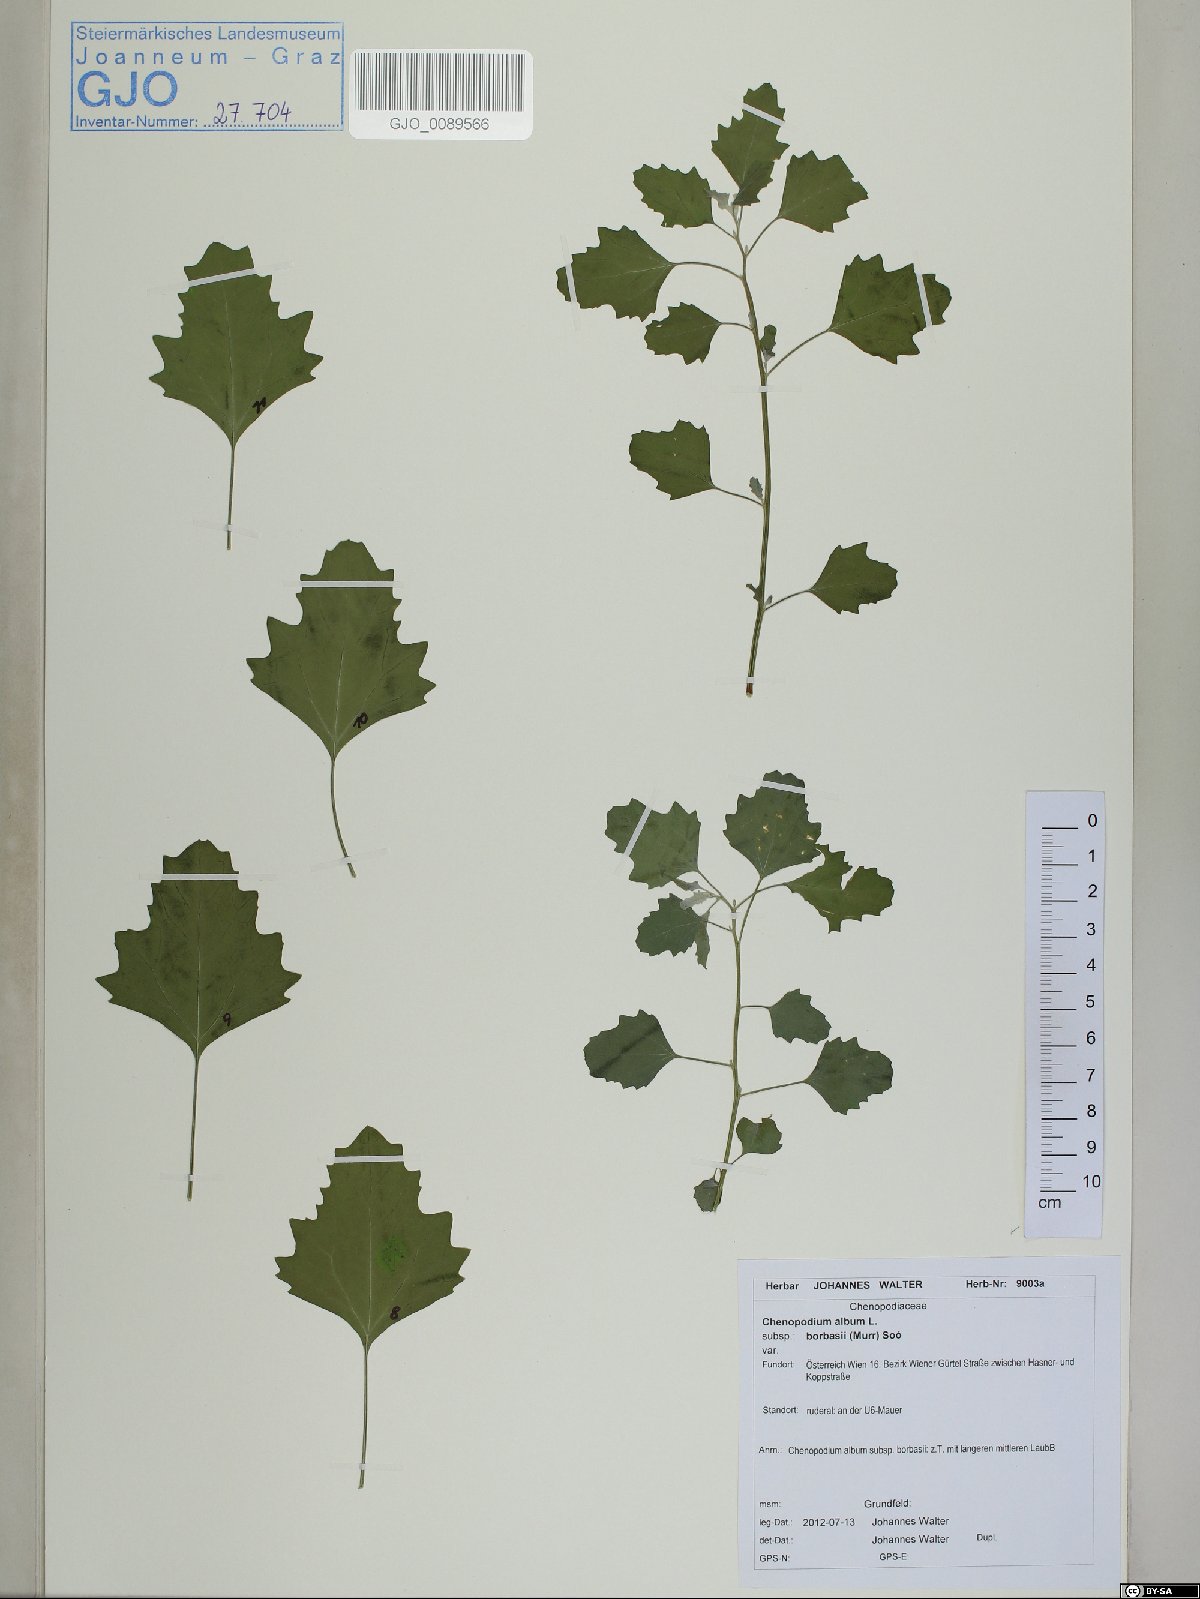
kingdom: Plantae
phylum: Tracheophyta
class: Magnoliopsida
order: Caryophyllales
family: Amaranthaceae
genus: Chenopodium
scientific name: Chenopodium borbasii
